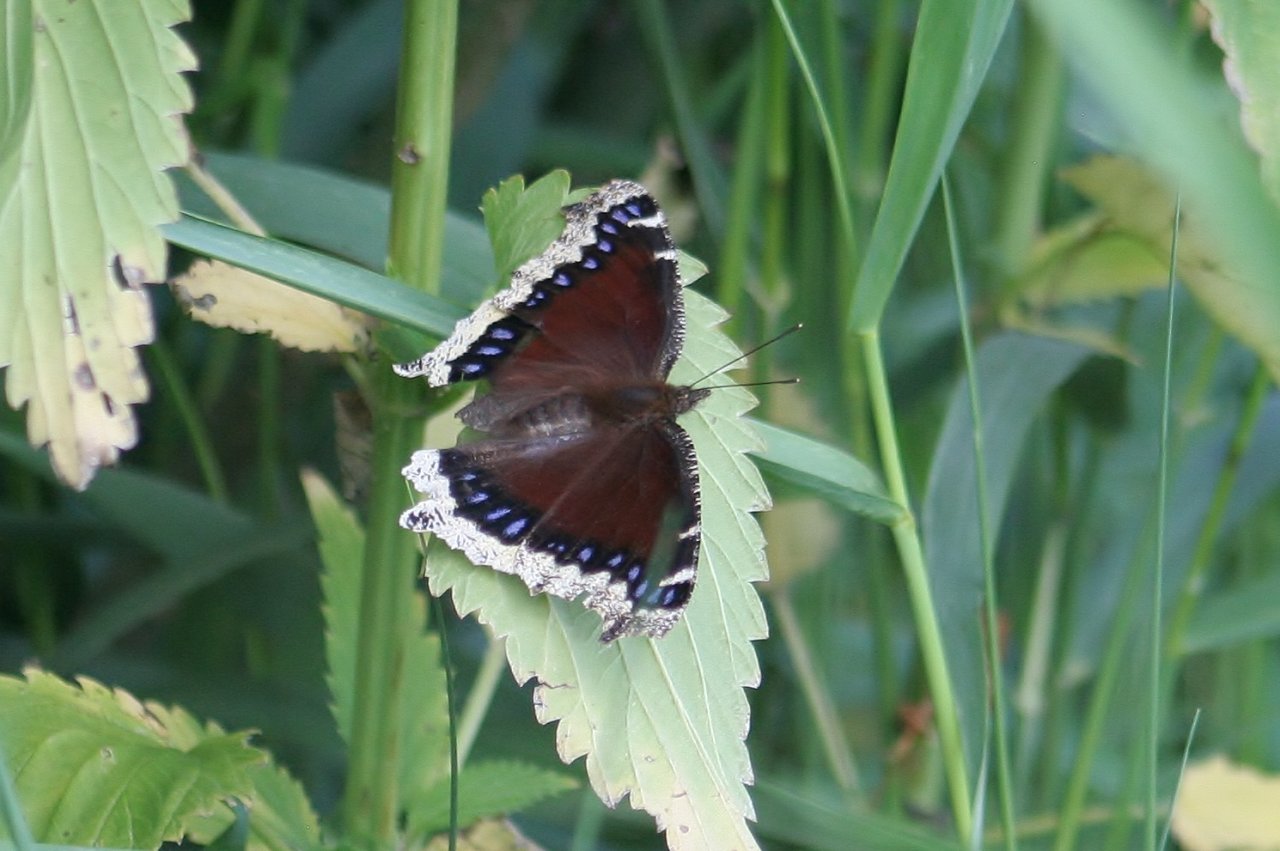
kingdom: Animalia
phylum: Arthropoda
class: Insecta
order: Lepidoptera
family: Nymphalidae
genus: Nymphalis
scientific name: Nymphalis antiopa
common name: Mourning Cloak
